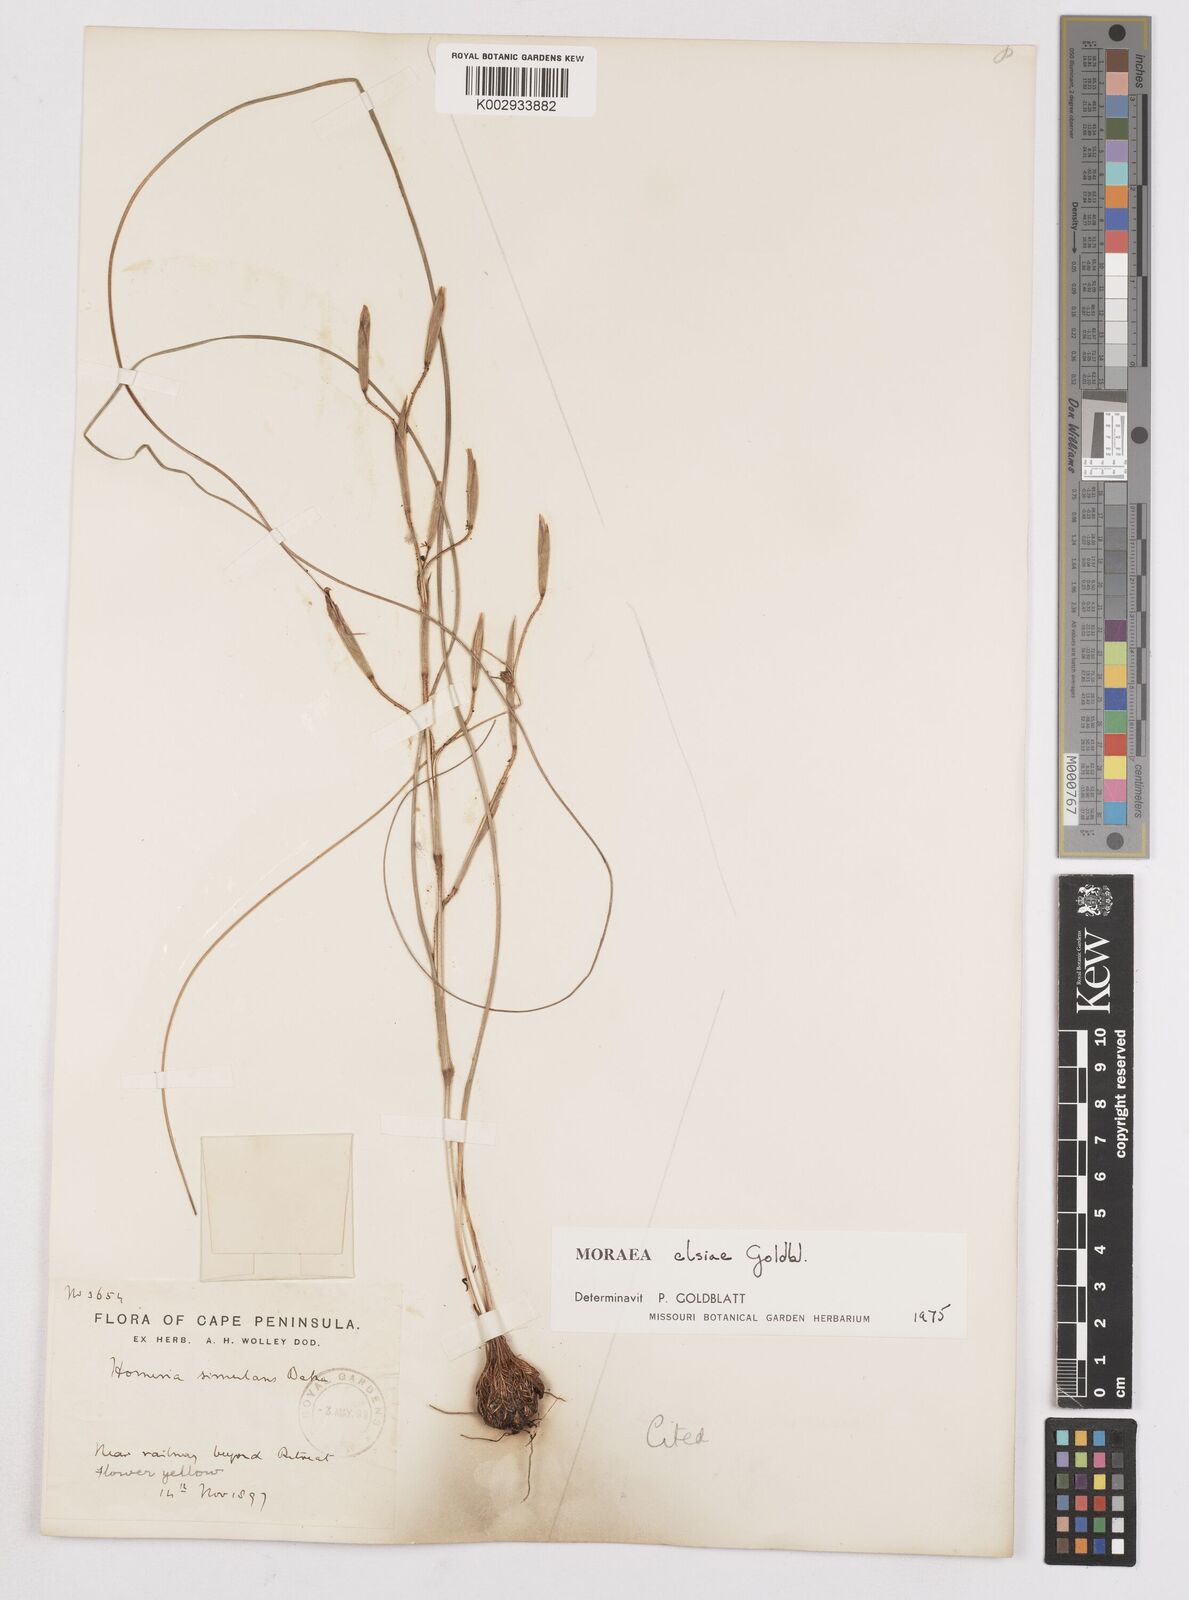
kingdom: Plantae
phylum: Tracheophyta
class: Liliopsida
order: Asparagales
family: Iridaceae
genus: Moraea
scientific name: Moraea elsiae
